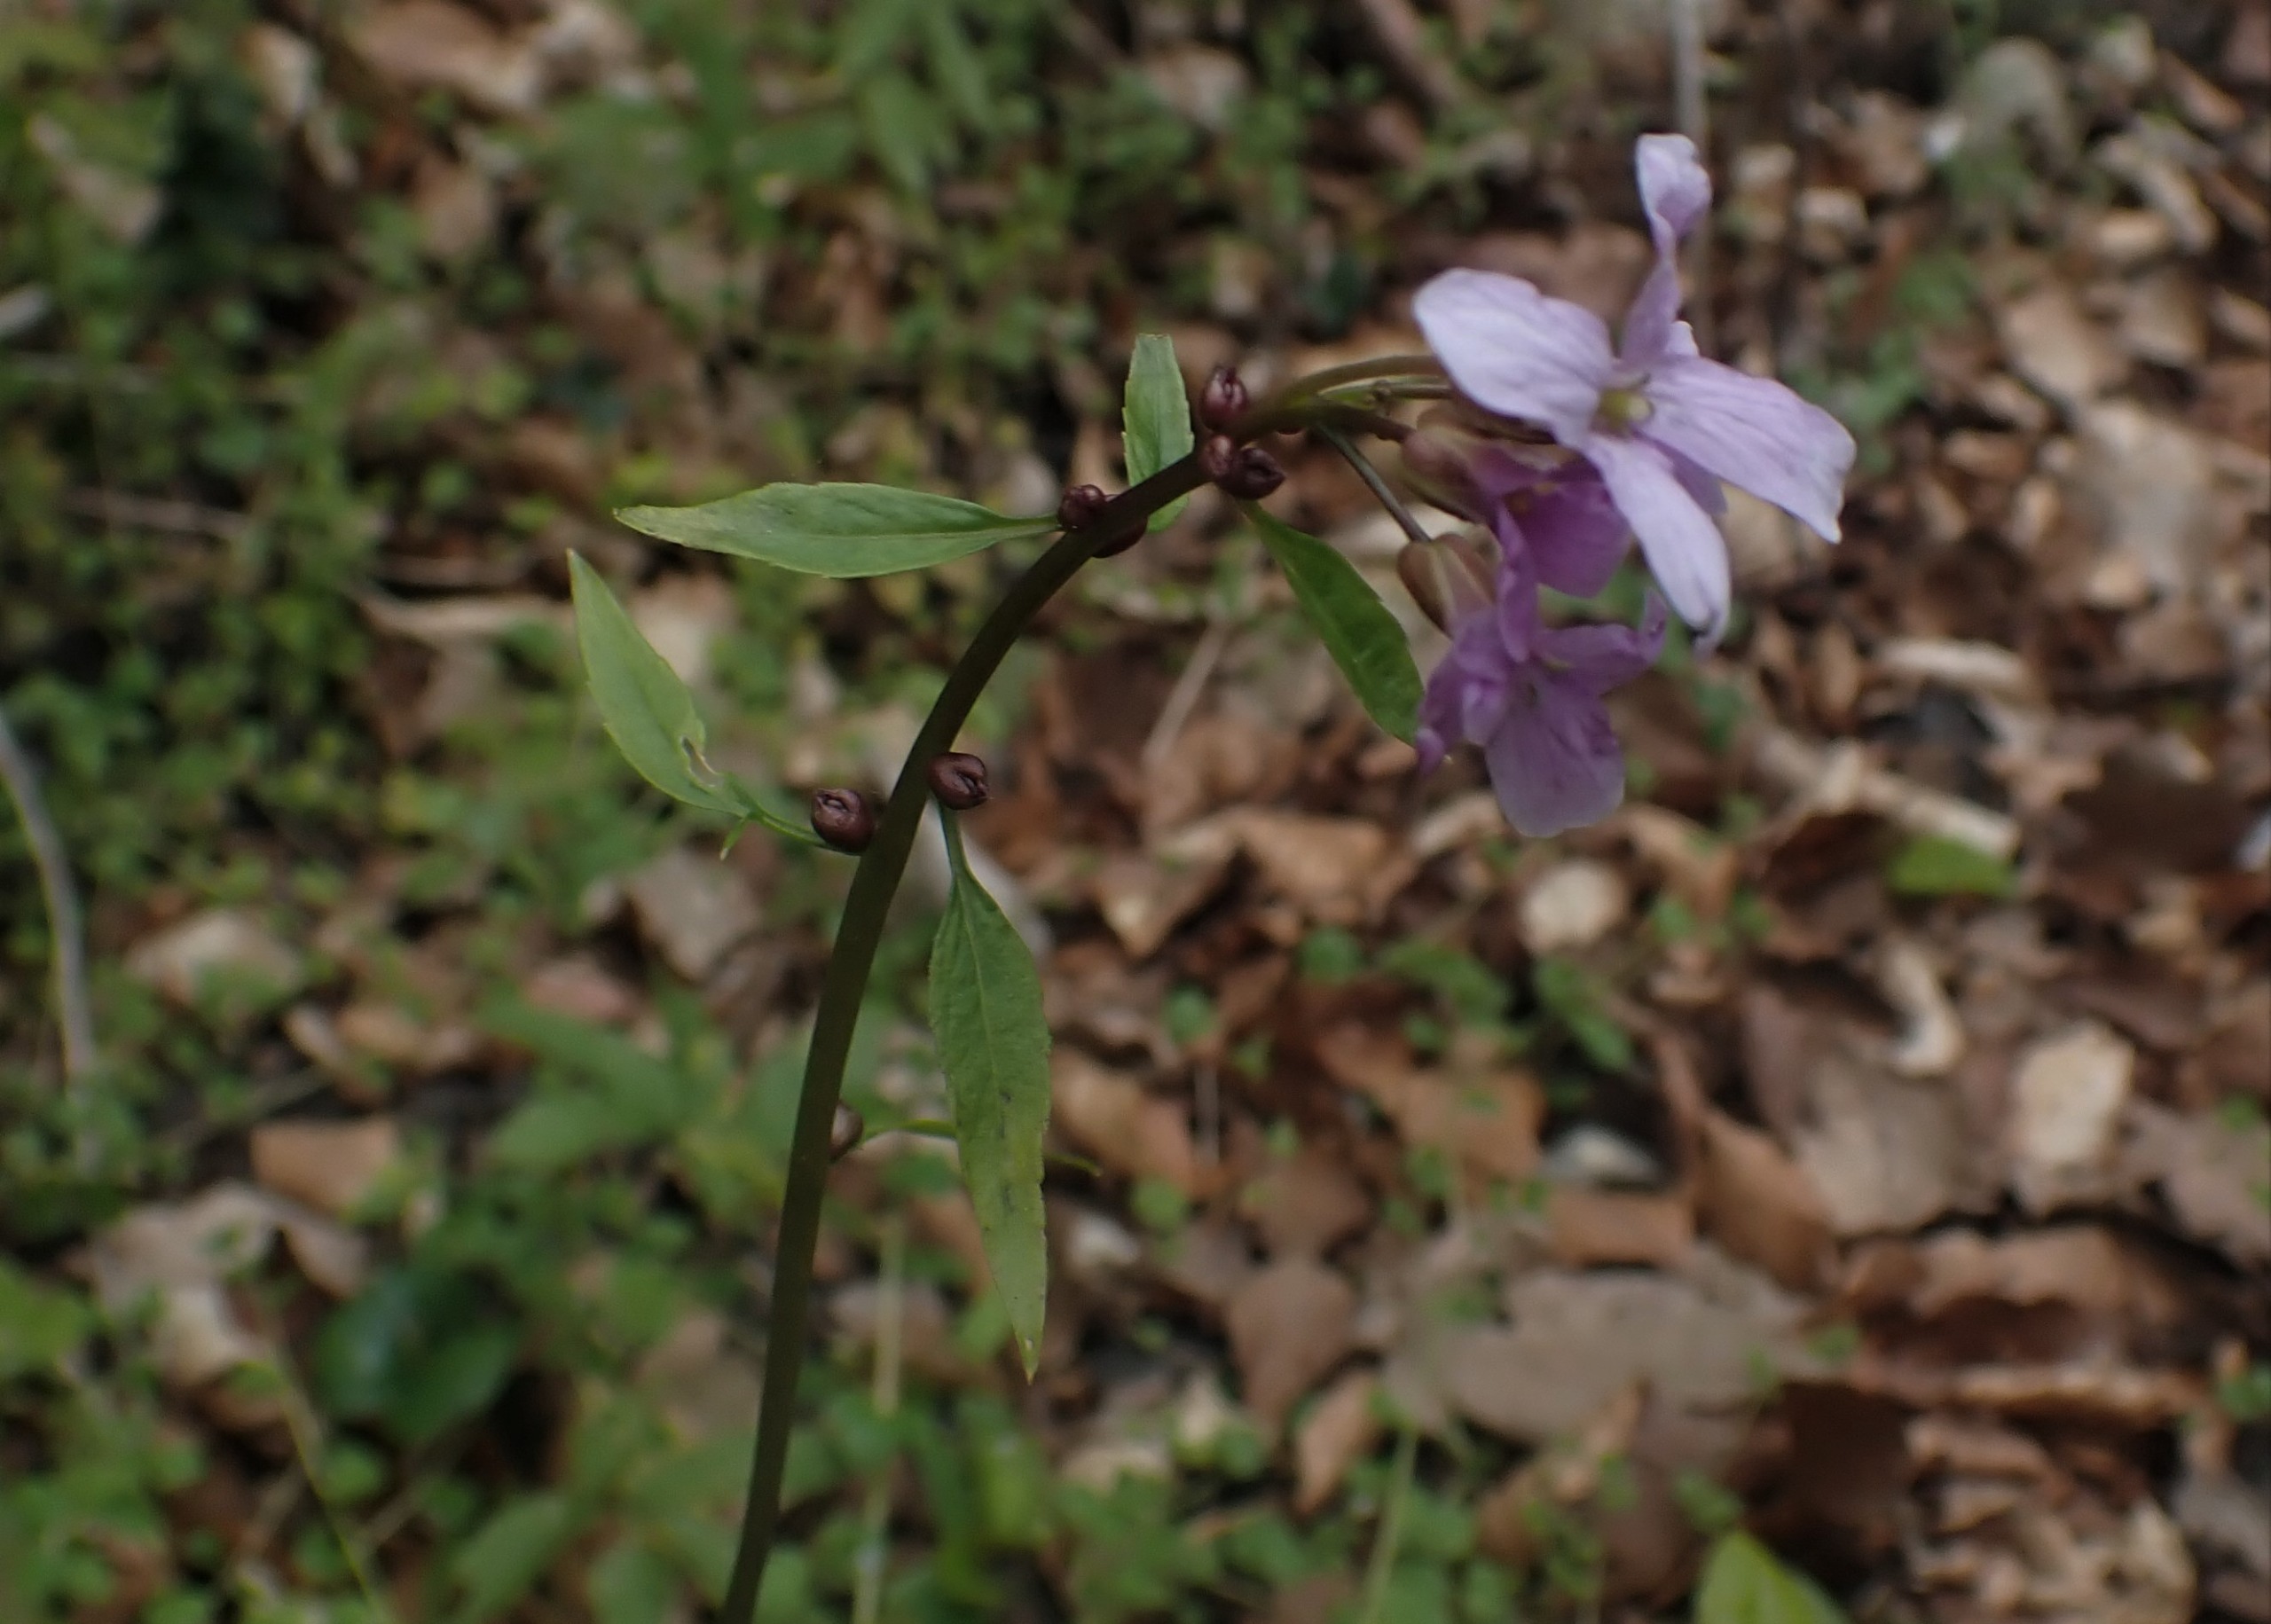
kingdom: Plantae
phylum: Tracheophyta
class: Magnoliopsida
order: Brassicales
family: Brassicaceae
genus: Cardamine
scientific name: Cardamine bulbifera
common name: Tandrod
